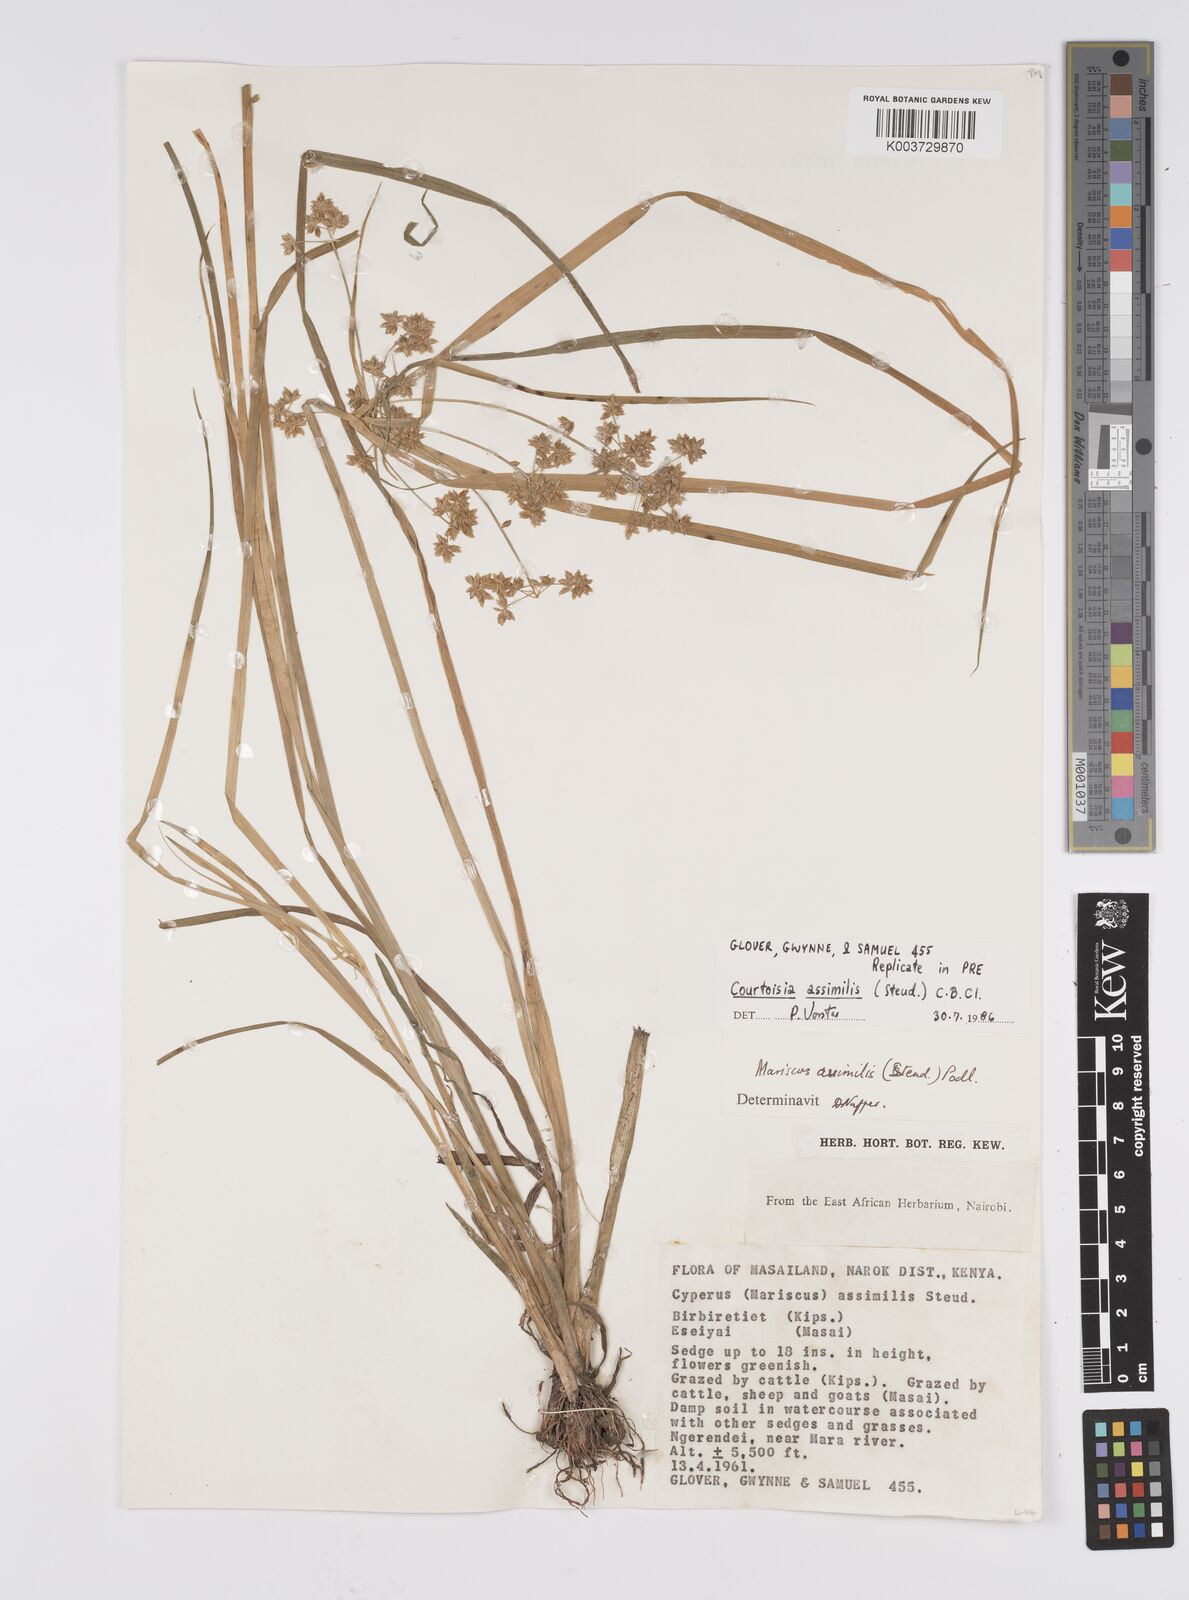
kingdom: Plantae
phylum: Tracheophyta
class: Liliopsida
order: Poales
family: Cyperaceae
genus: Cyperus
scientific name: Cyperus assimilis
